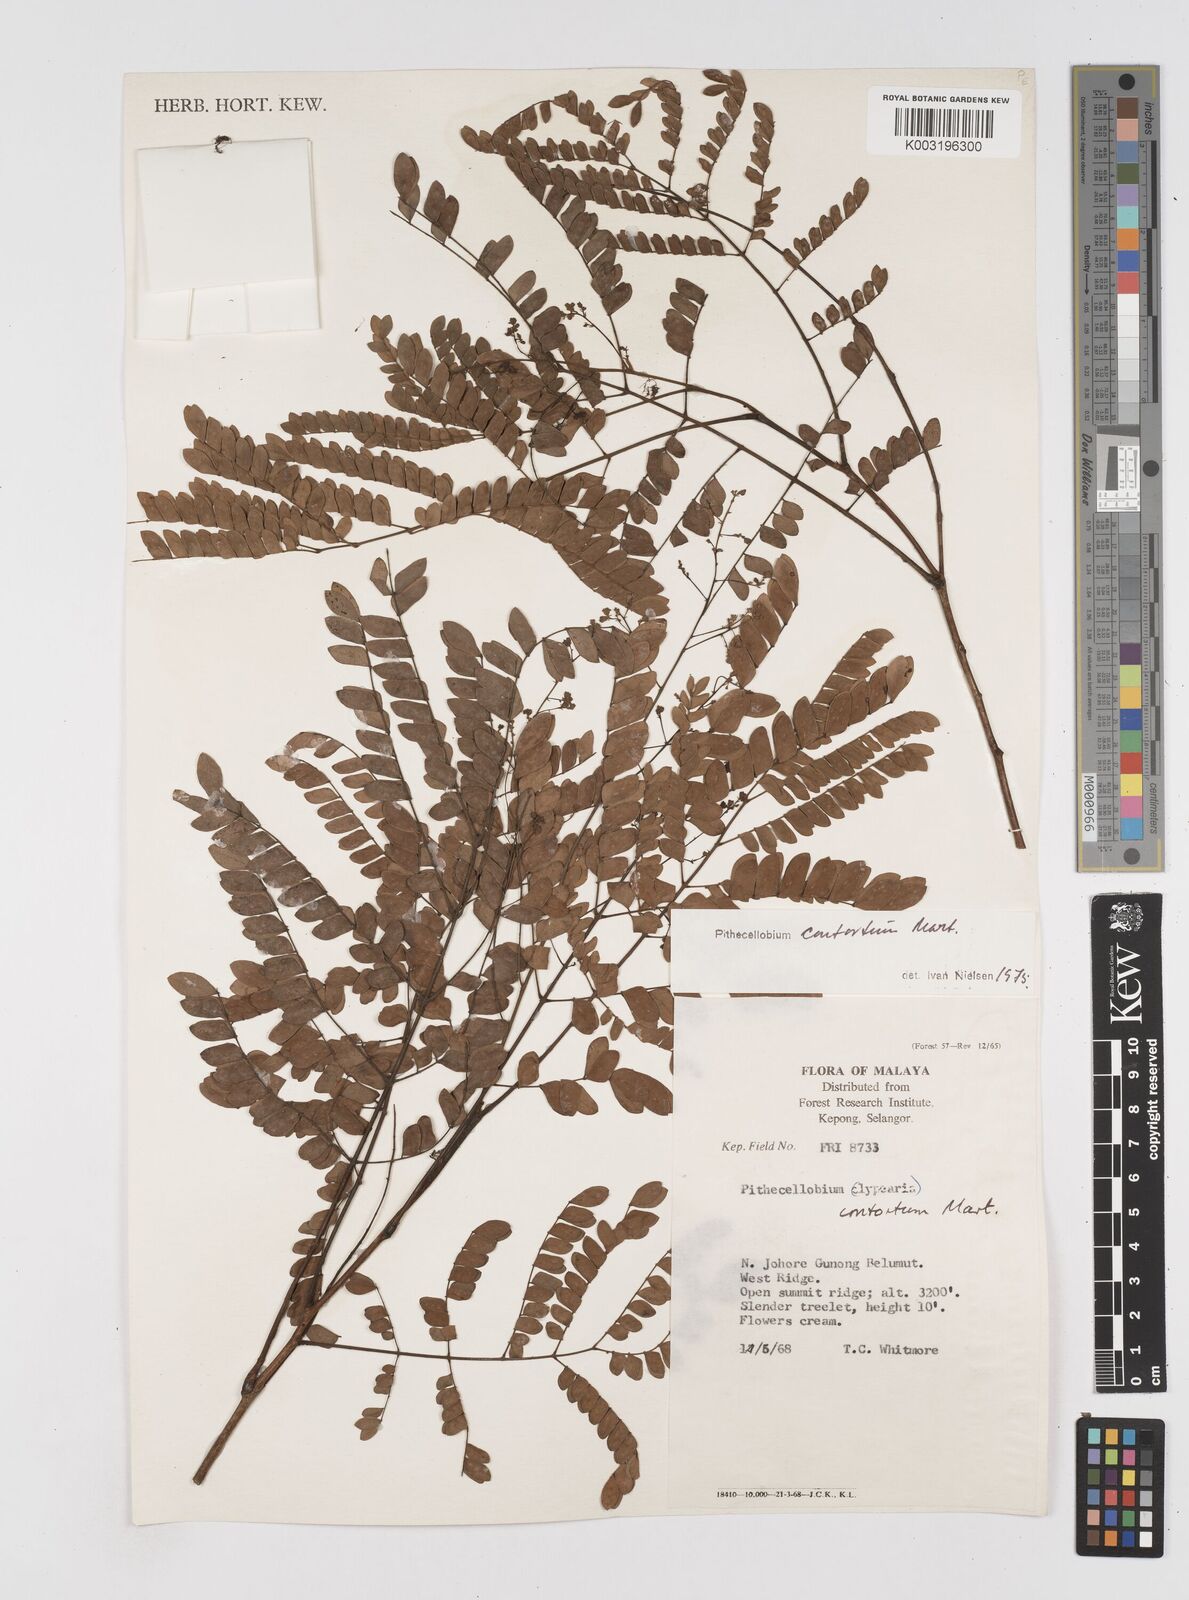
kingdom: Plantae
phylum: Tracheophyta
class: Magnoliopsida
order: Fabales
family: Fabaceae
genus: Archidendron
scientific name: Archidendron contortum
